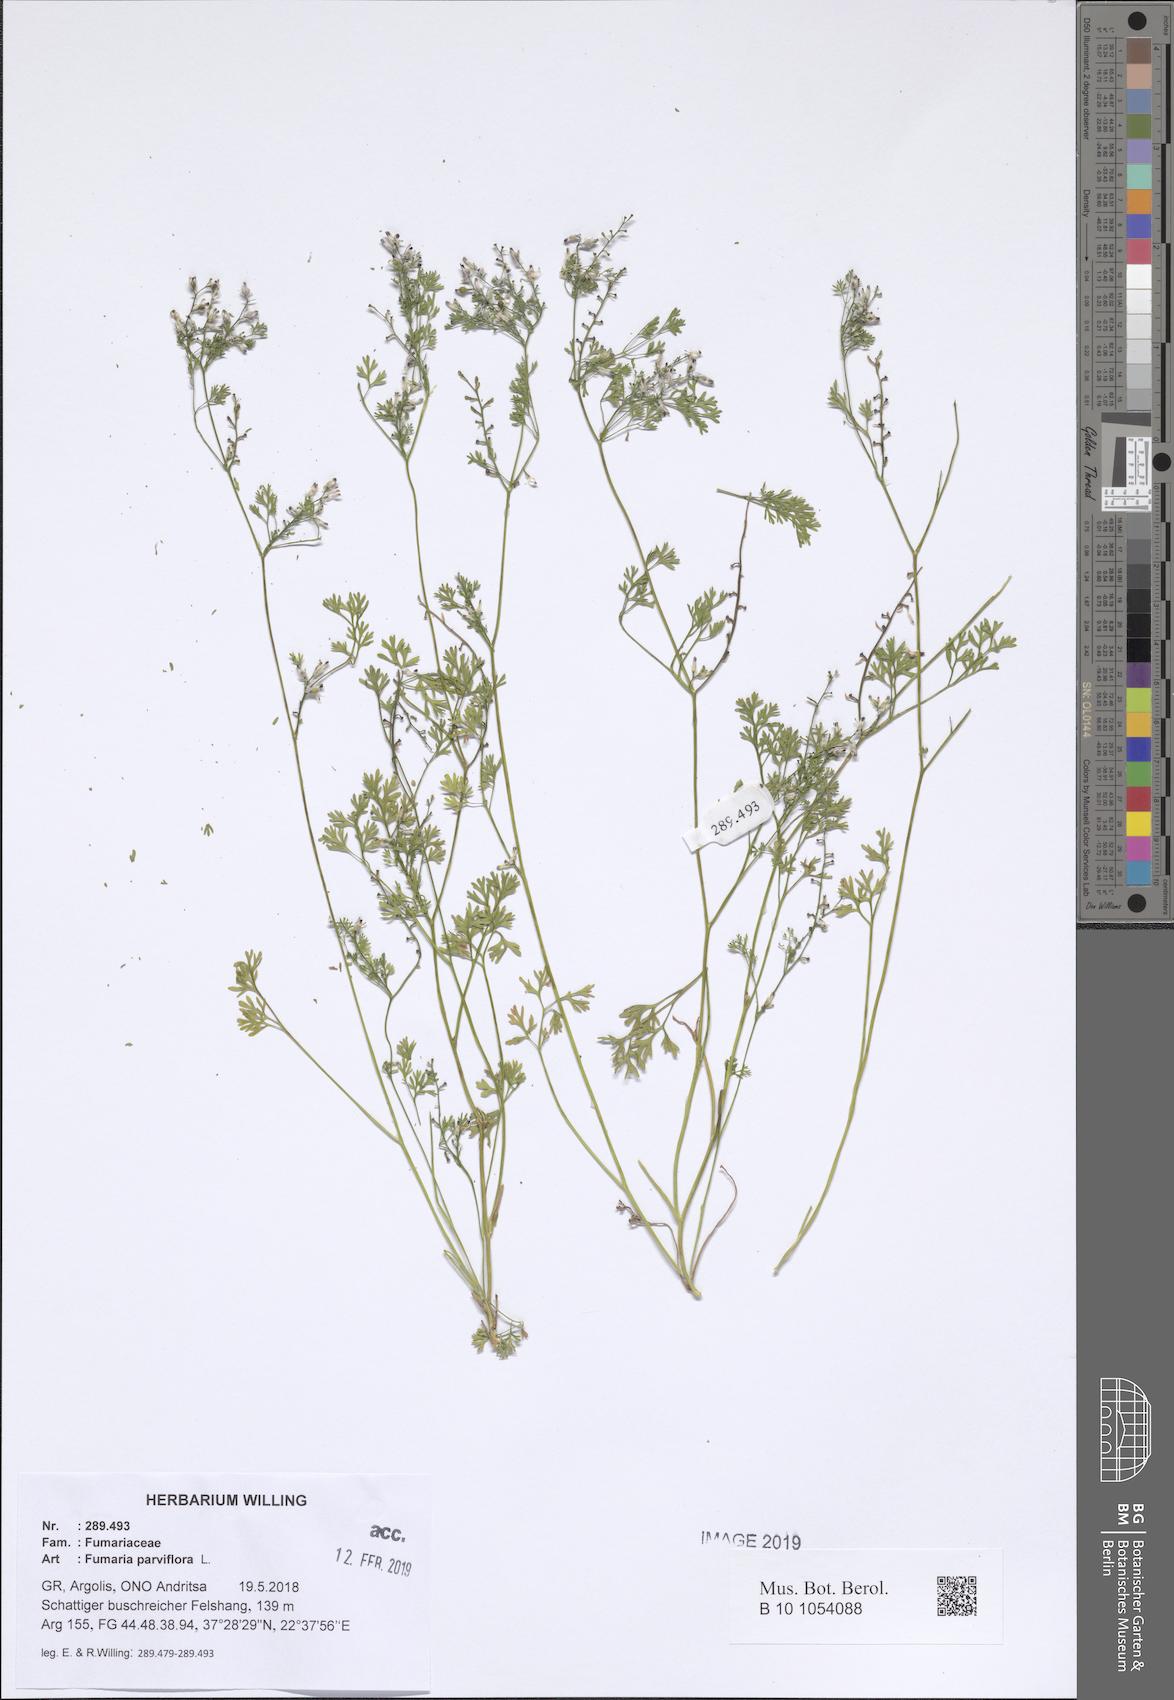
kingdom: Plantae
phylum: Tracheophyta
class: Magnoliopsida
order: Ranunculales
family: Papaveraceae
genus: Fumaria
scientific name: Fumaria parviflora
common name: Fine-leaved fumitory
